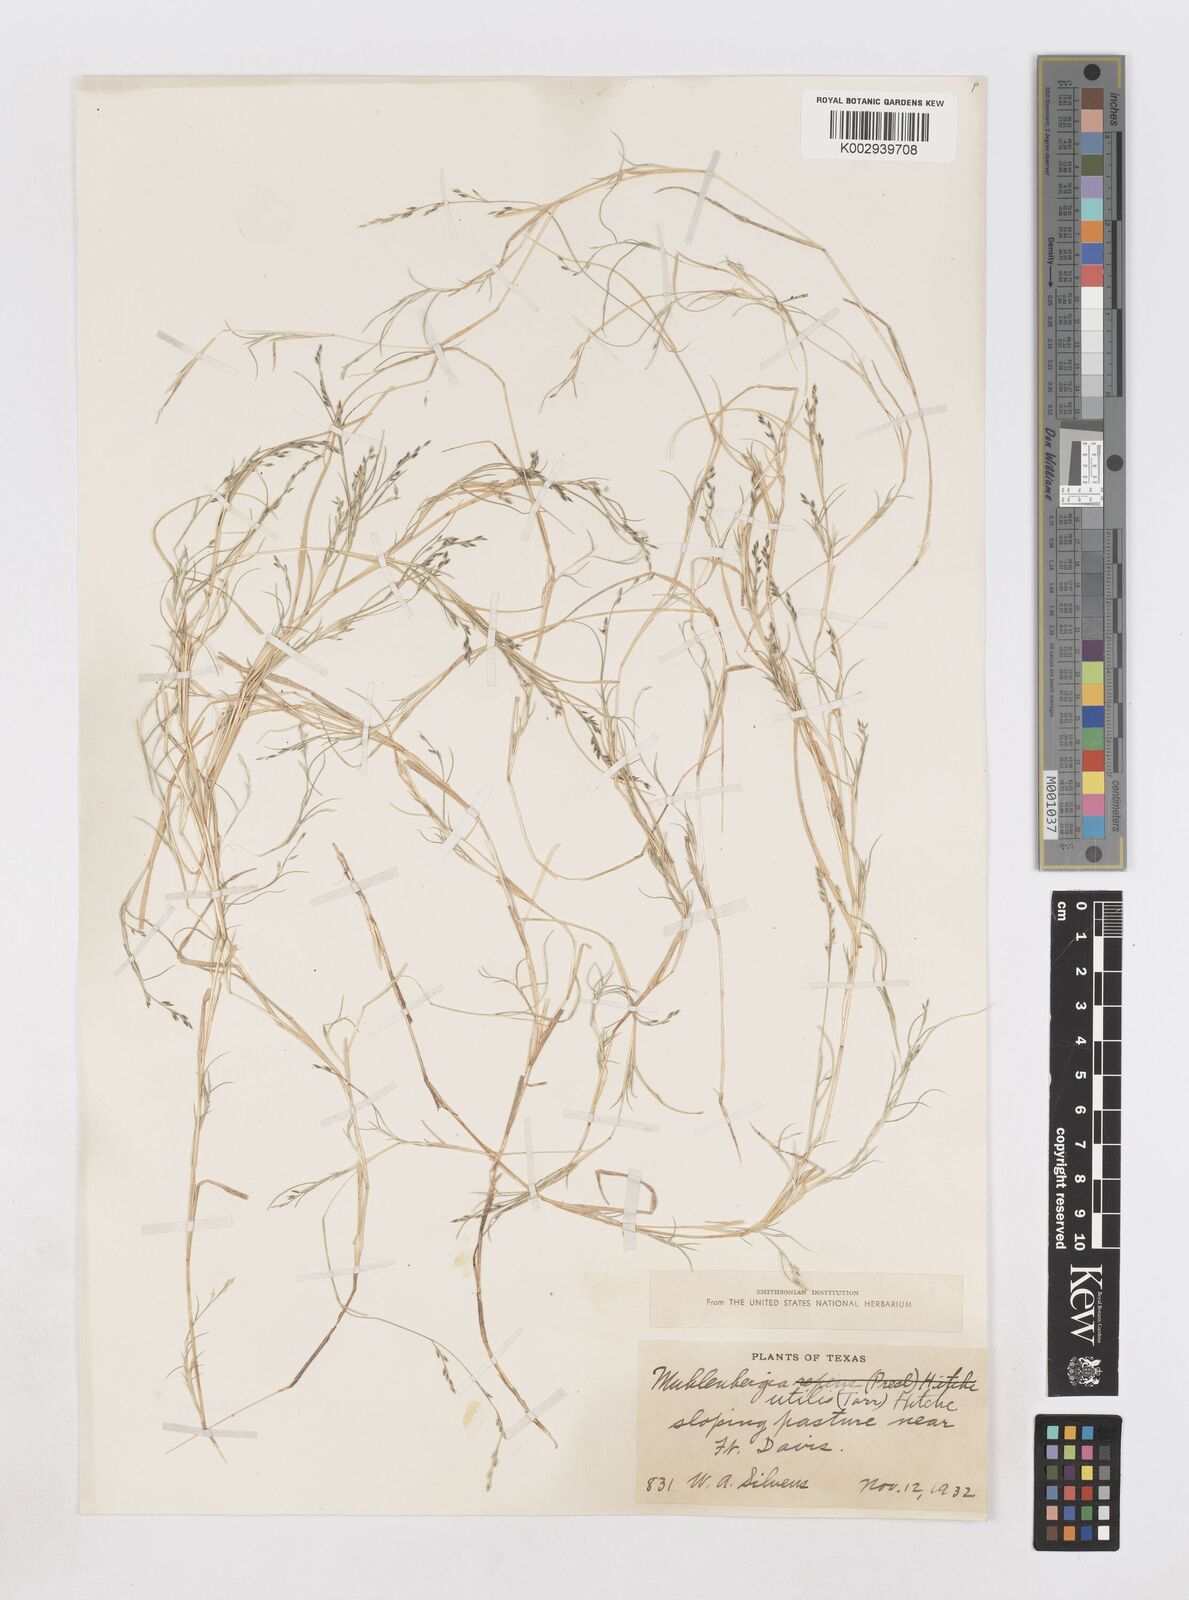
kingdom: Plantae
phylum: Tracheophyta
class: Liliopsida
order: Poales
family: Poaceae
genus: Muhlenbergia
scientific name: Muhlenbergia utilis
